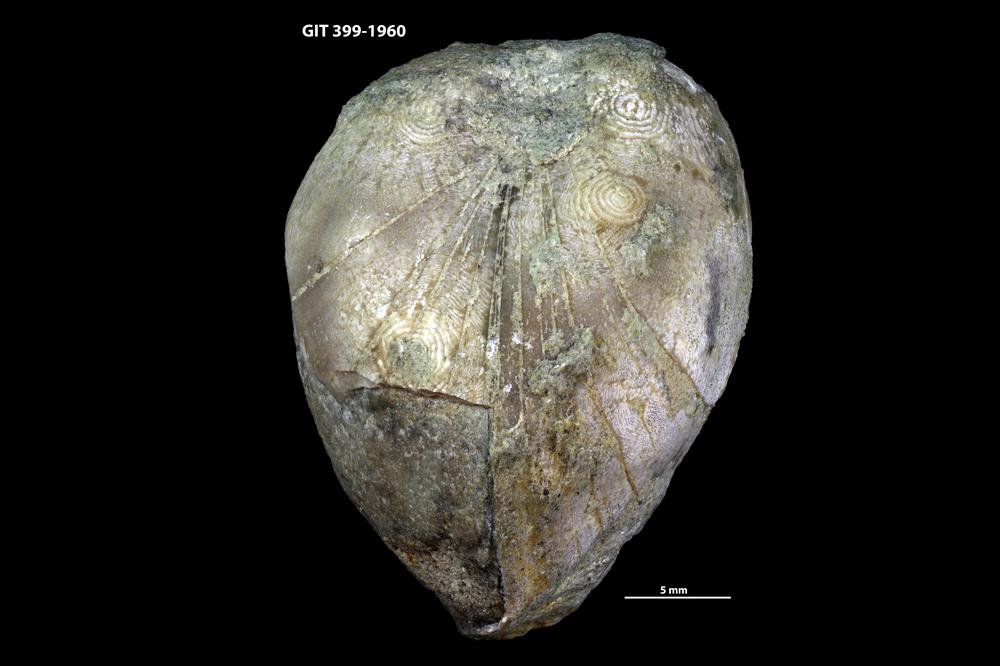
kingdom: Animalia
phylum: Brachiopoda
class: Rhynchonellata
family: Porambonitidae
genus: Porambonites
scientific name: Porambonites
